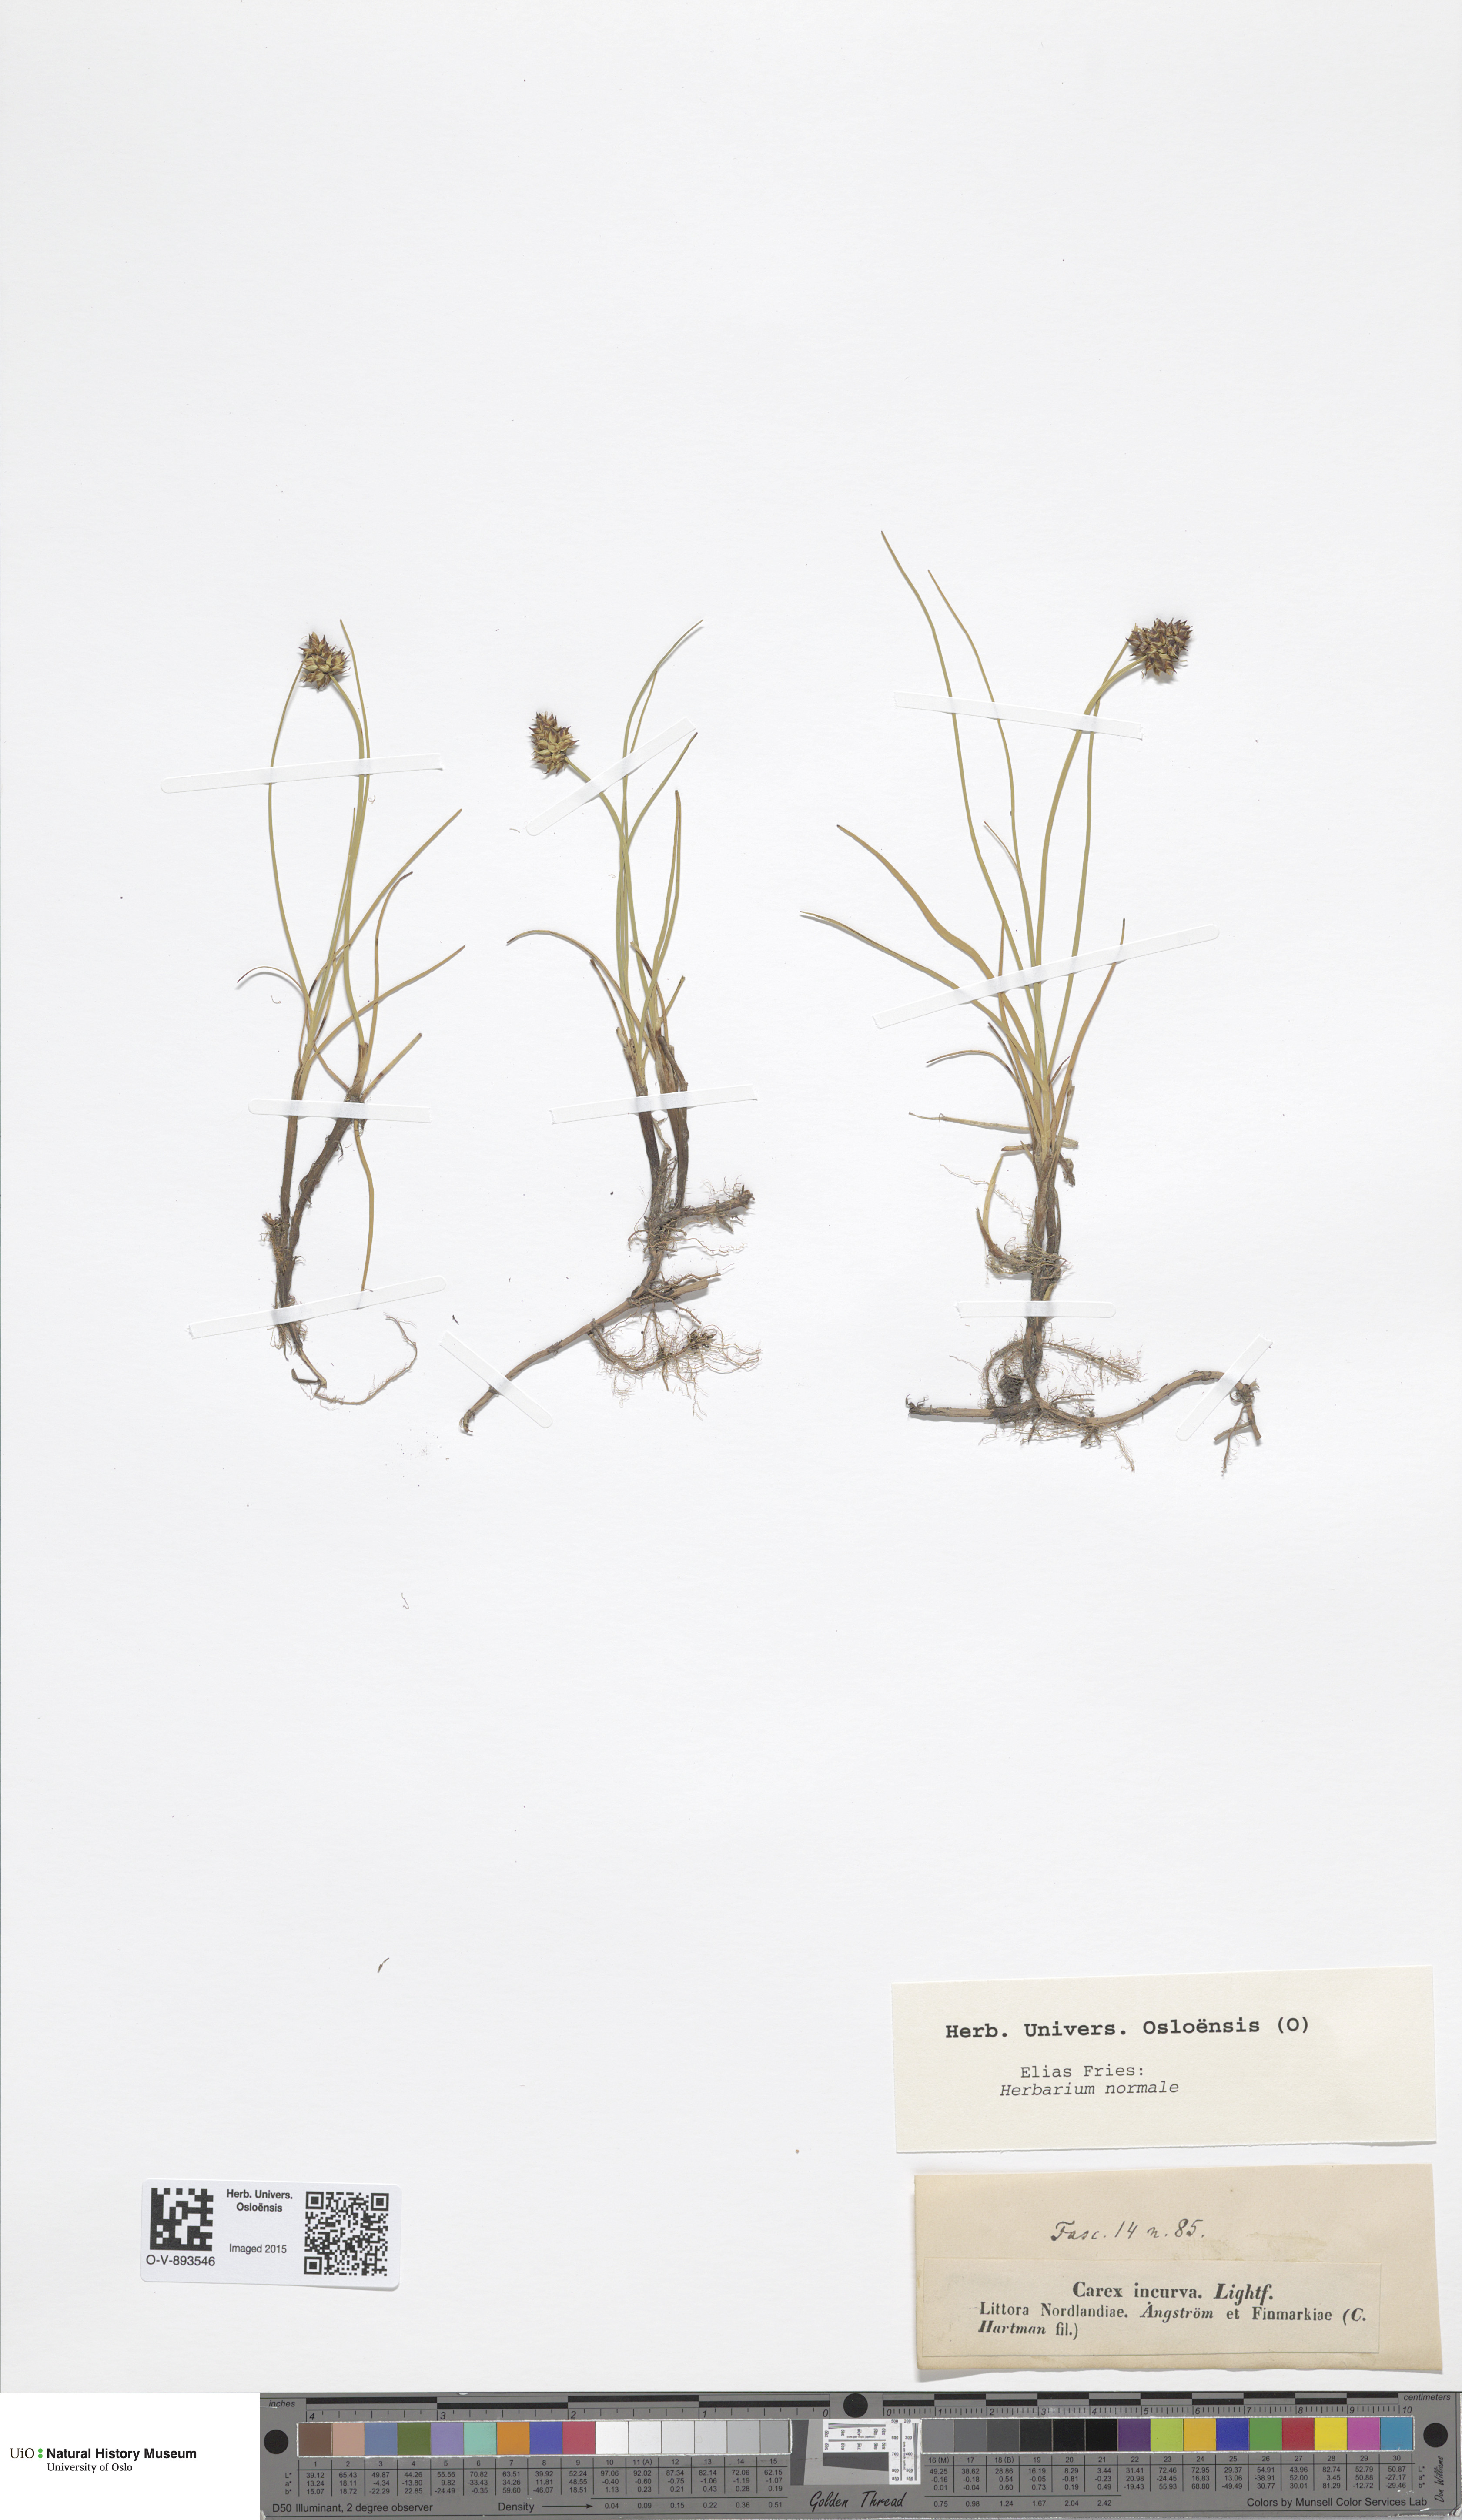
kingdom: Plantae
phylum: Tracheophyta
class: Liliopsida
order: Poales
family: Cyperaceae
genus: Carex
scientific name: Carex maritima
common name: Curved sedge
